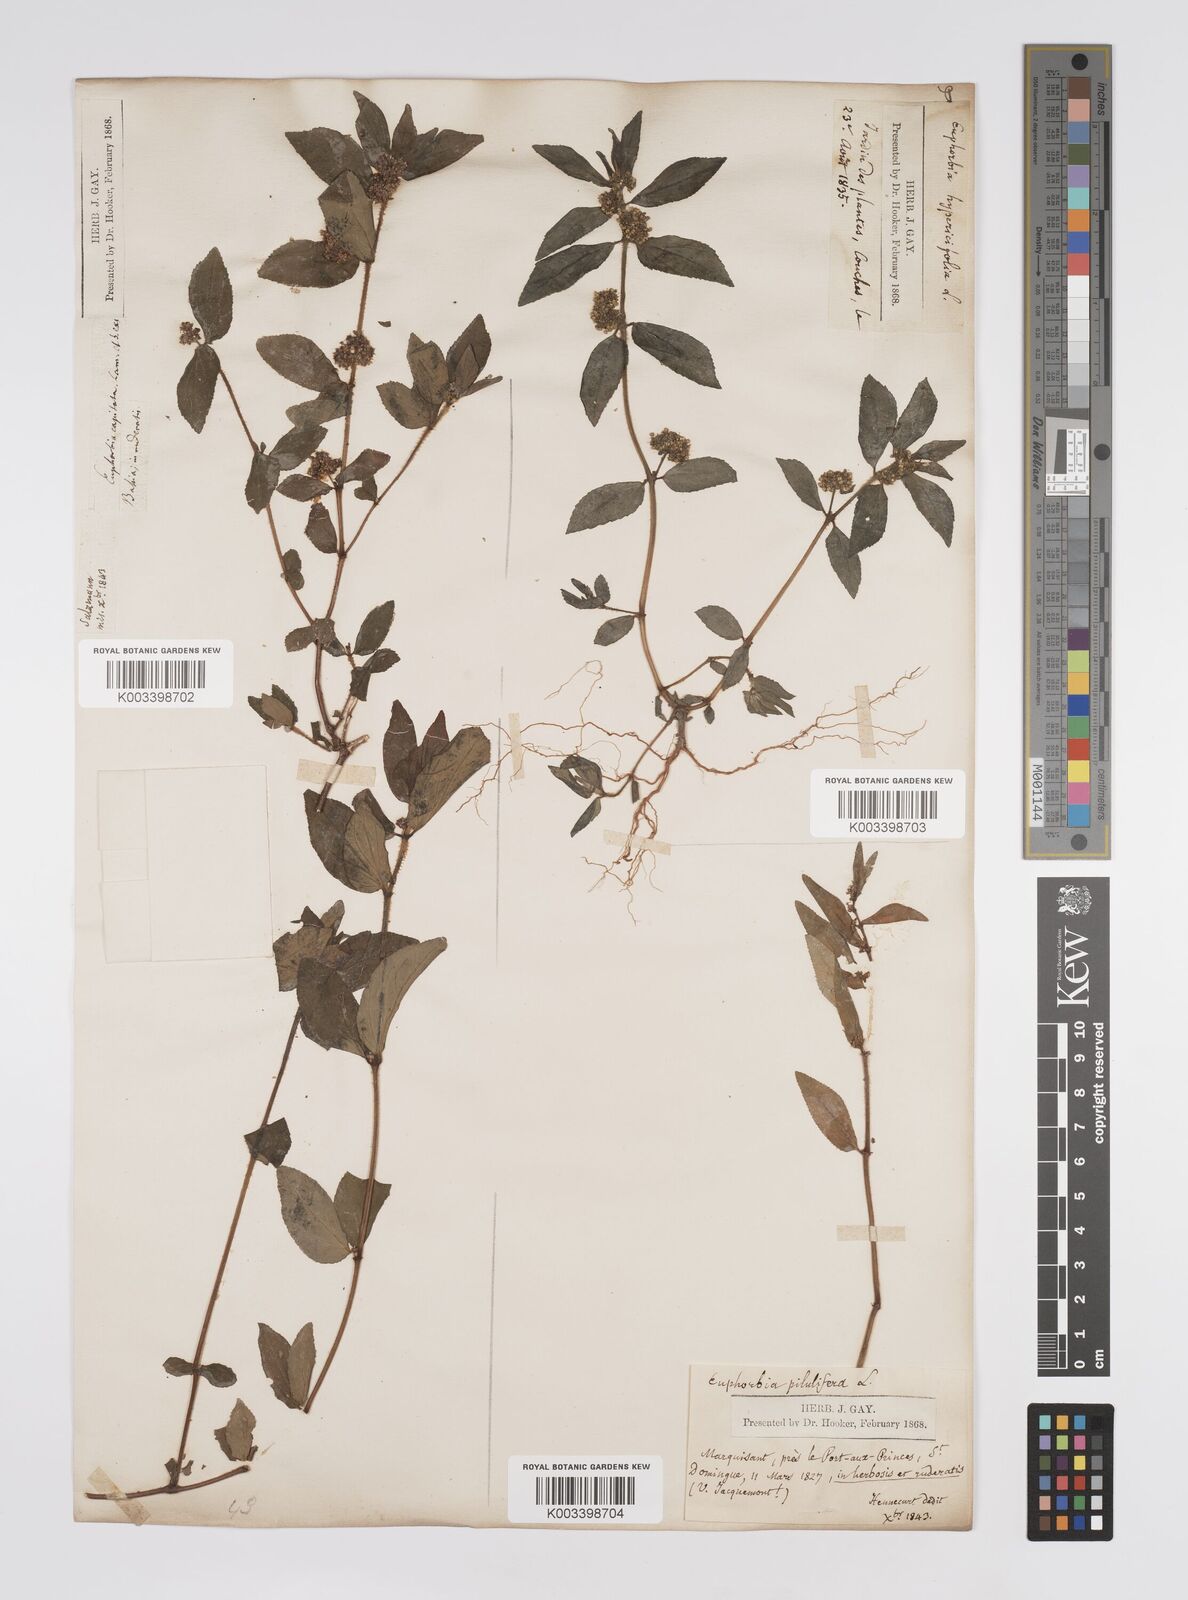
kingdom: Plantae
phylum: Tracheophyta
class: Magnoliopsida
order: Malpighiales
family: Euphorbiaceae
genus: Euphorbia
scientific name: Euphorbia hirta
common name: Pillpod sandmat
